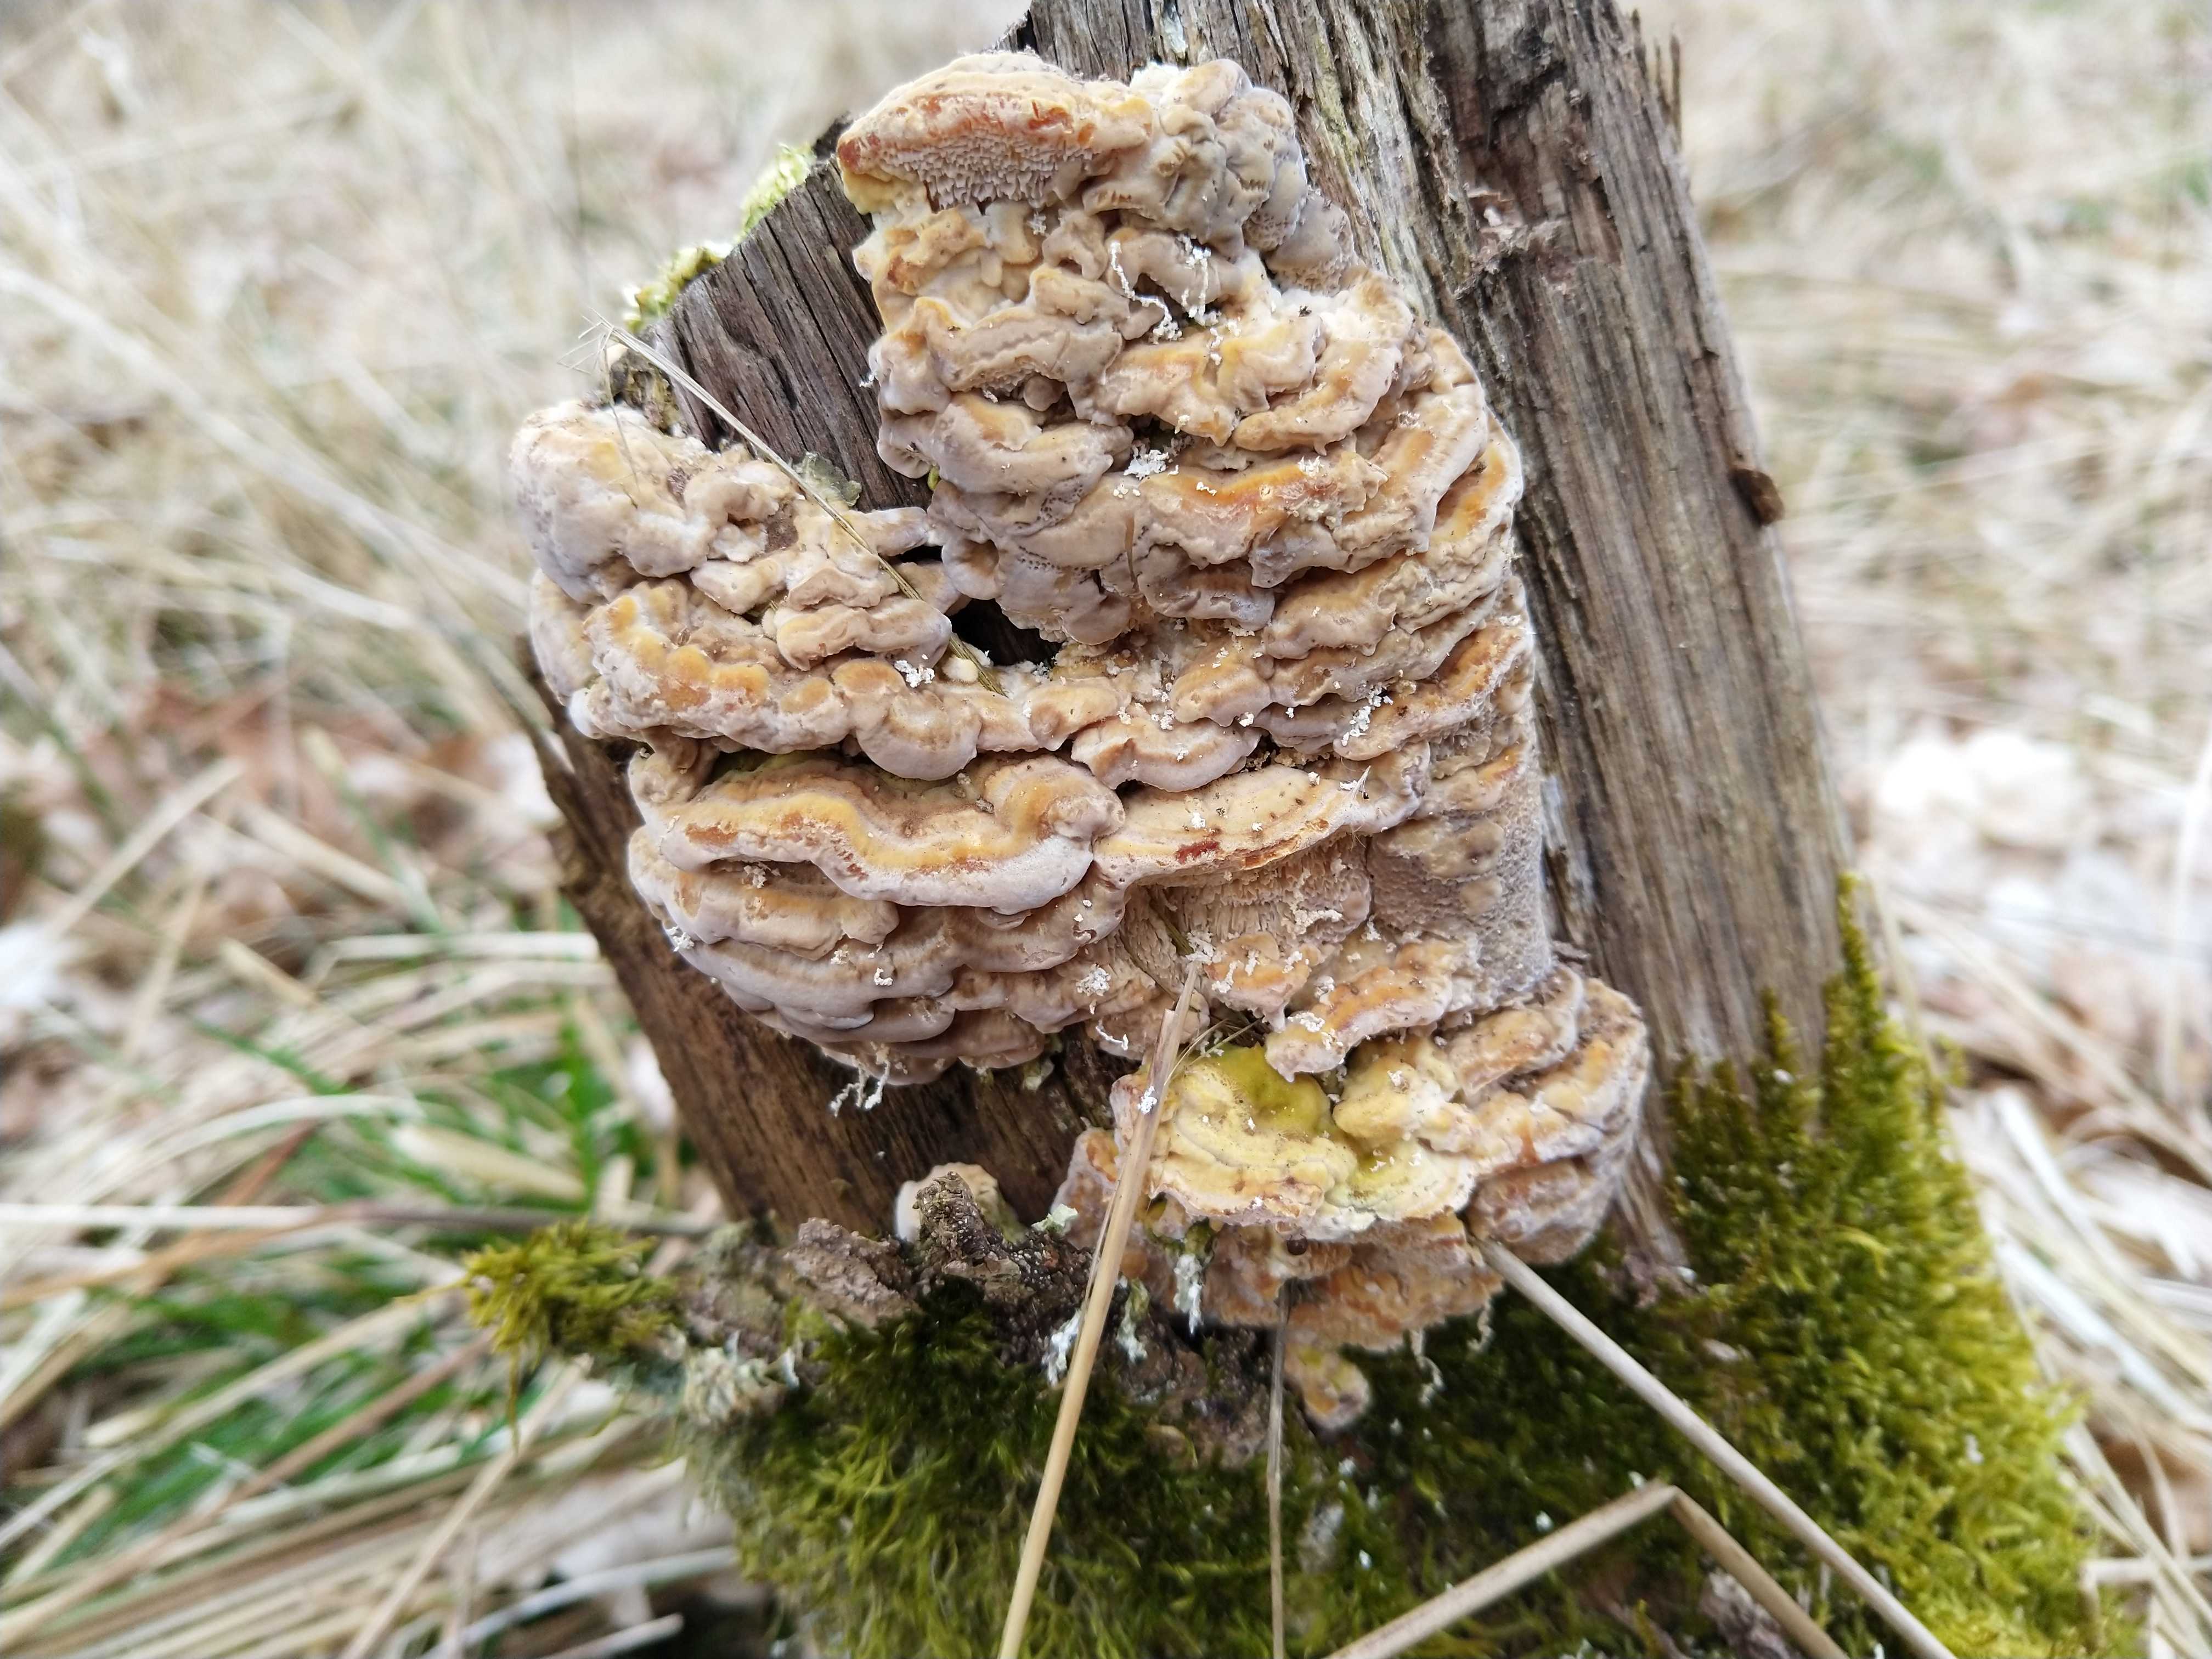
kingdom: Fungi
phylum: Basidiomycota
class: Agaricomycetes
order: Polyporales
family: Polyporaceae
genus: Trametes
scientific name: Trametes
